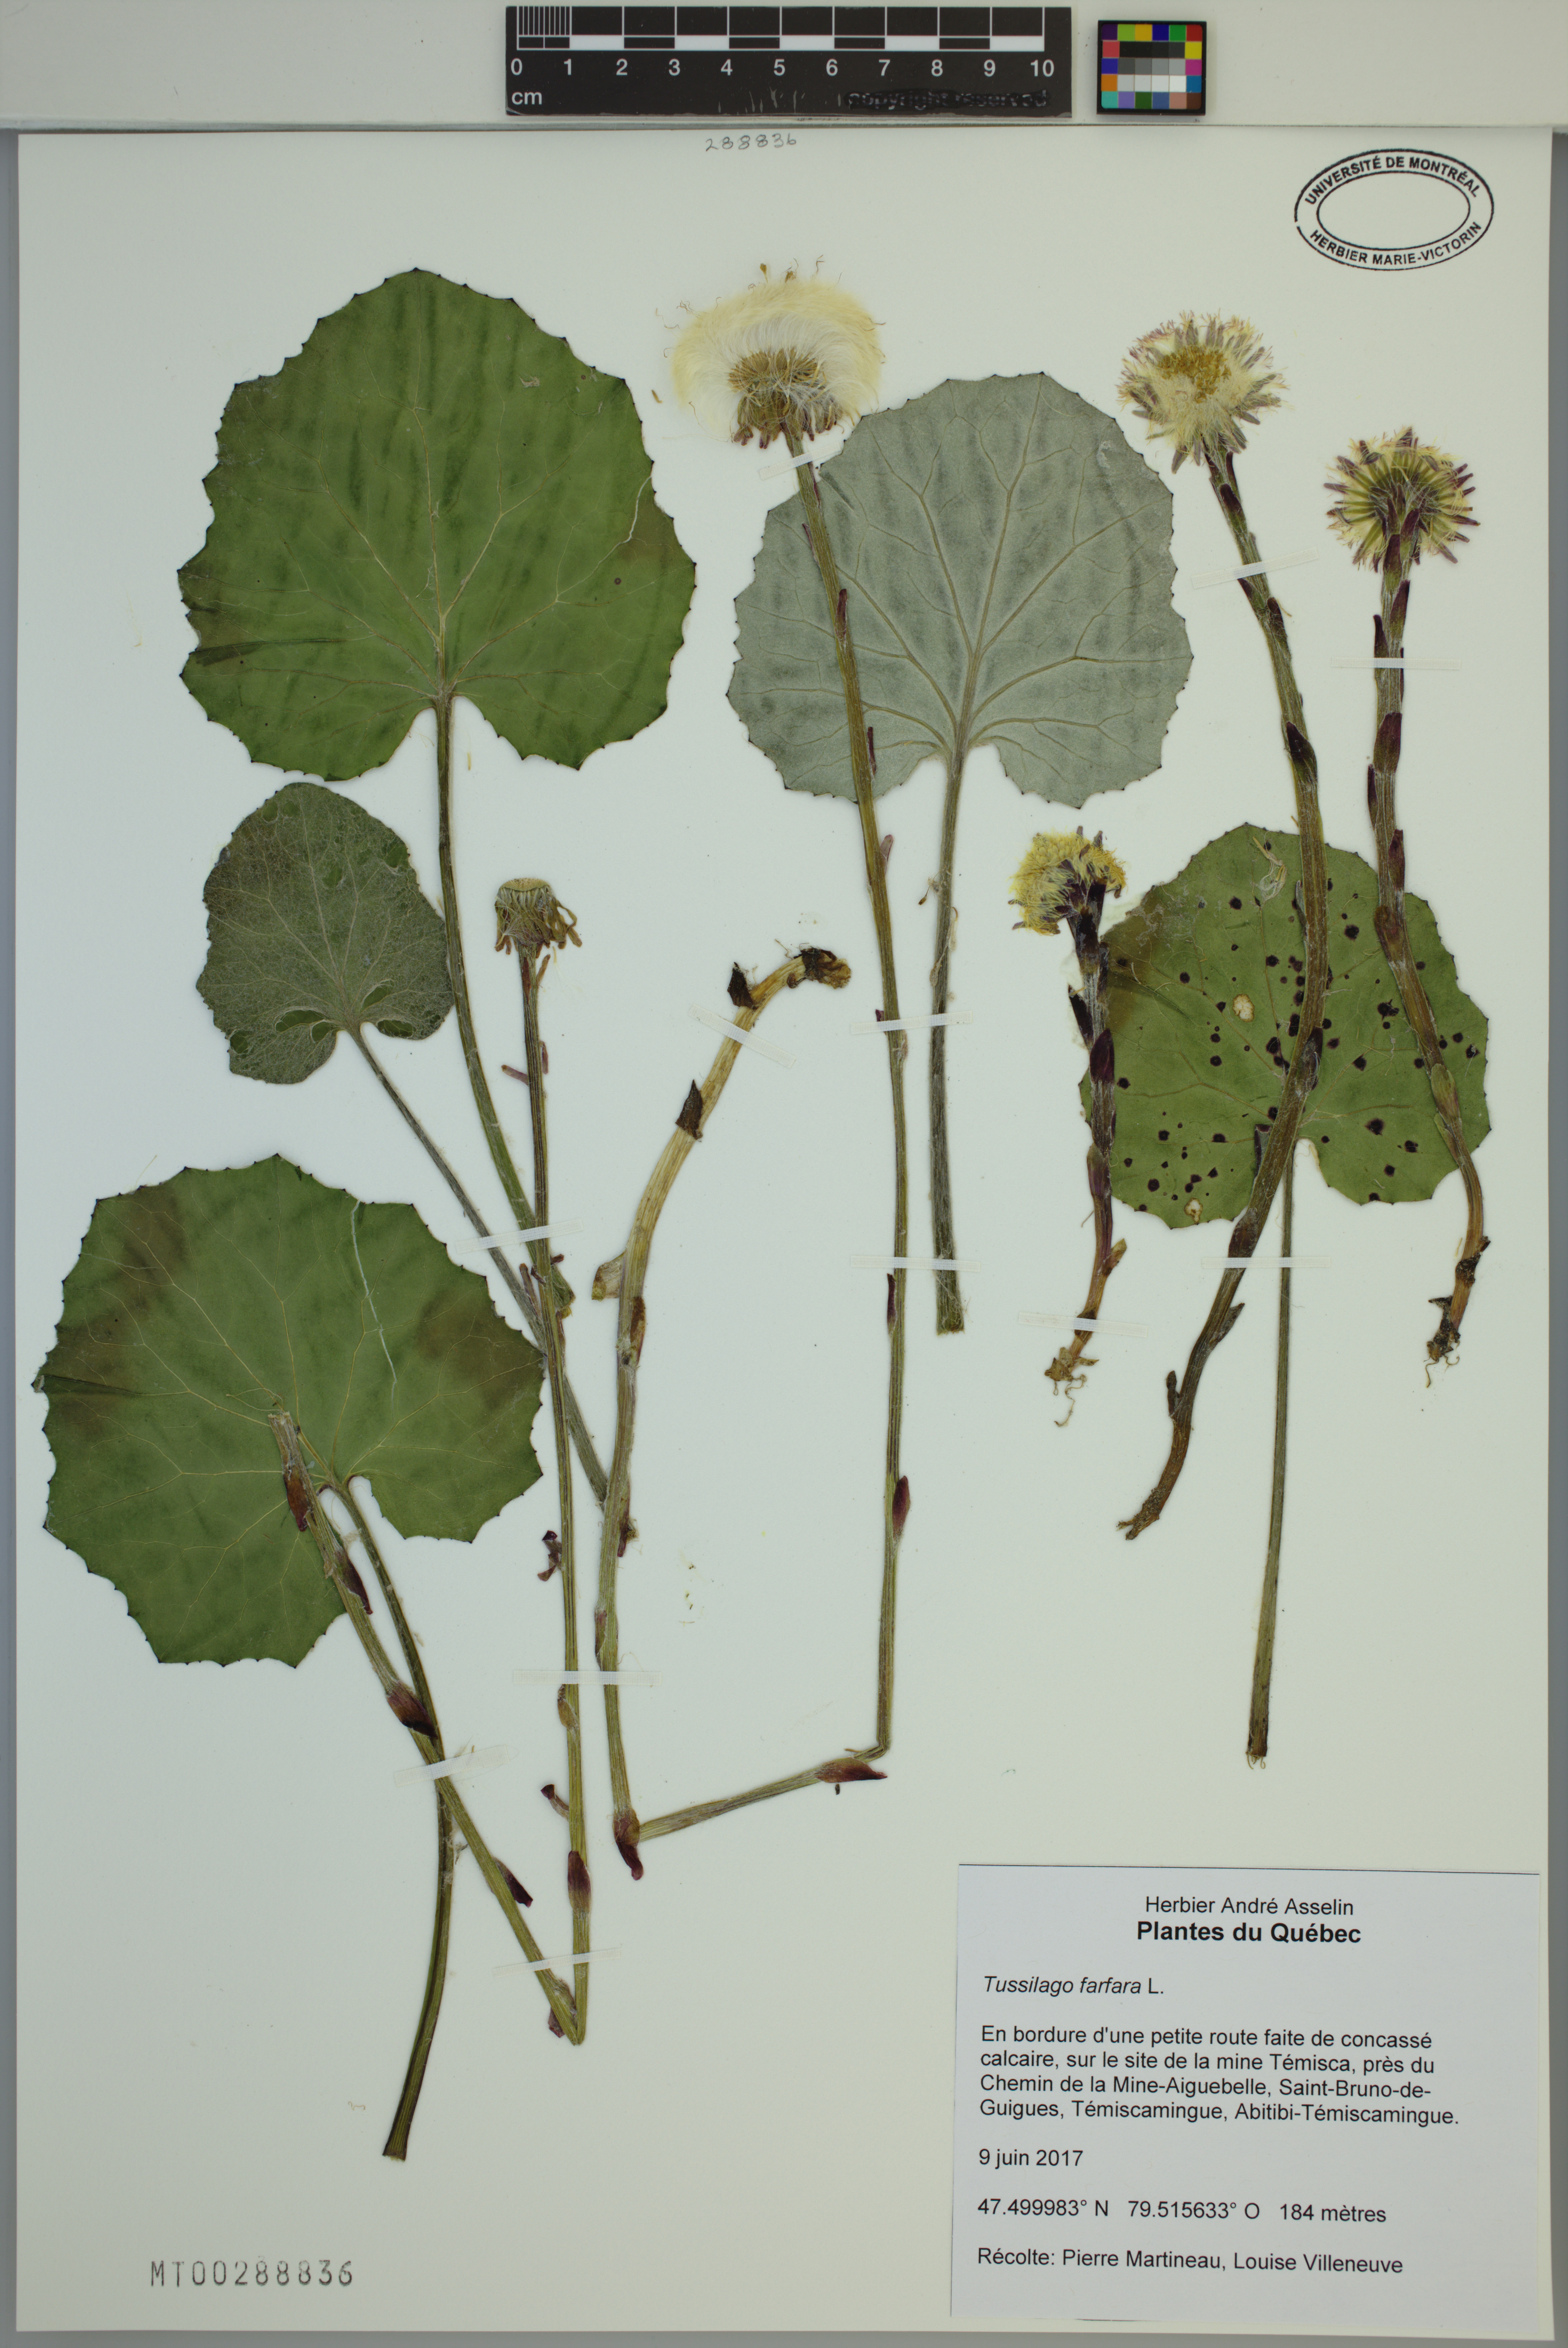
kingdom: Plantae
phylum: Tracheophyta
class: Magnoliopsida
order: Asterales
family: Asteraceae
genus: Tussilago
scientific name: Tussilago farfara
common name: Coltsfoot
